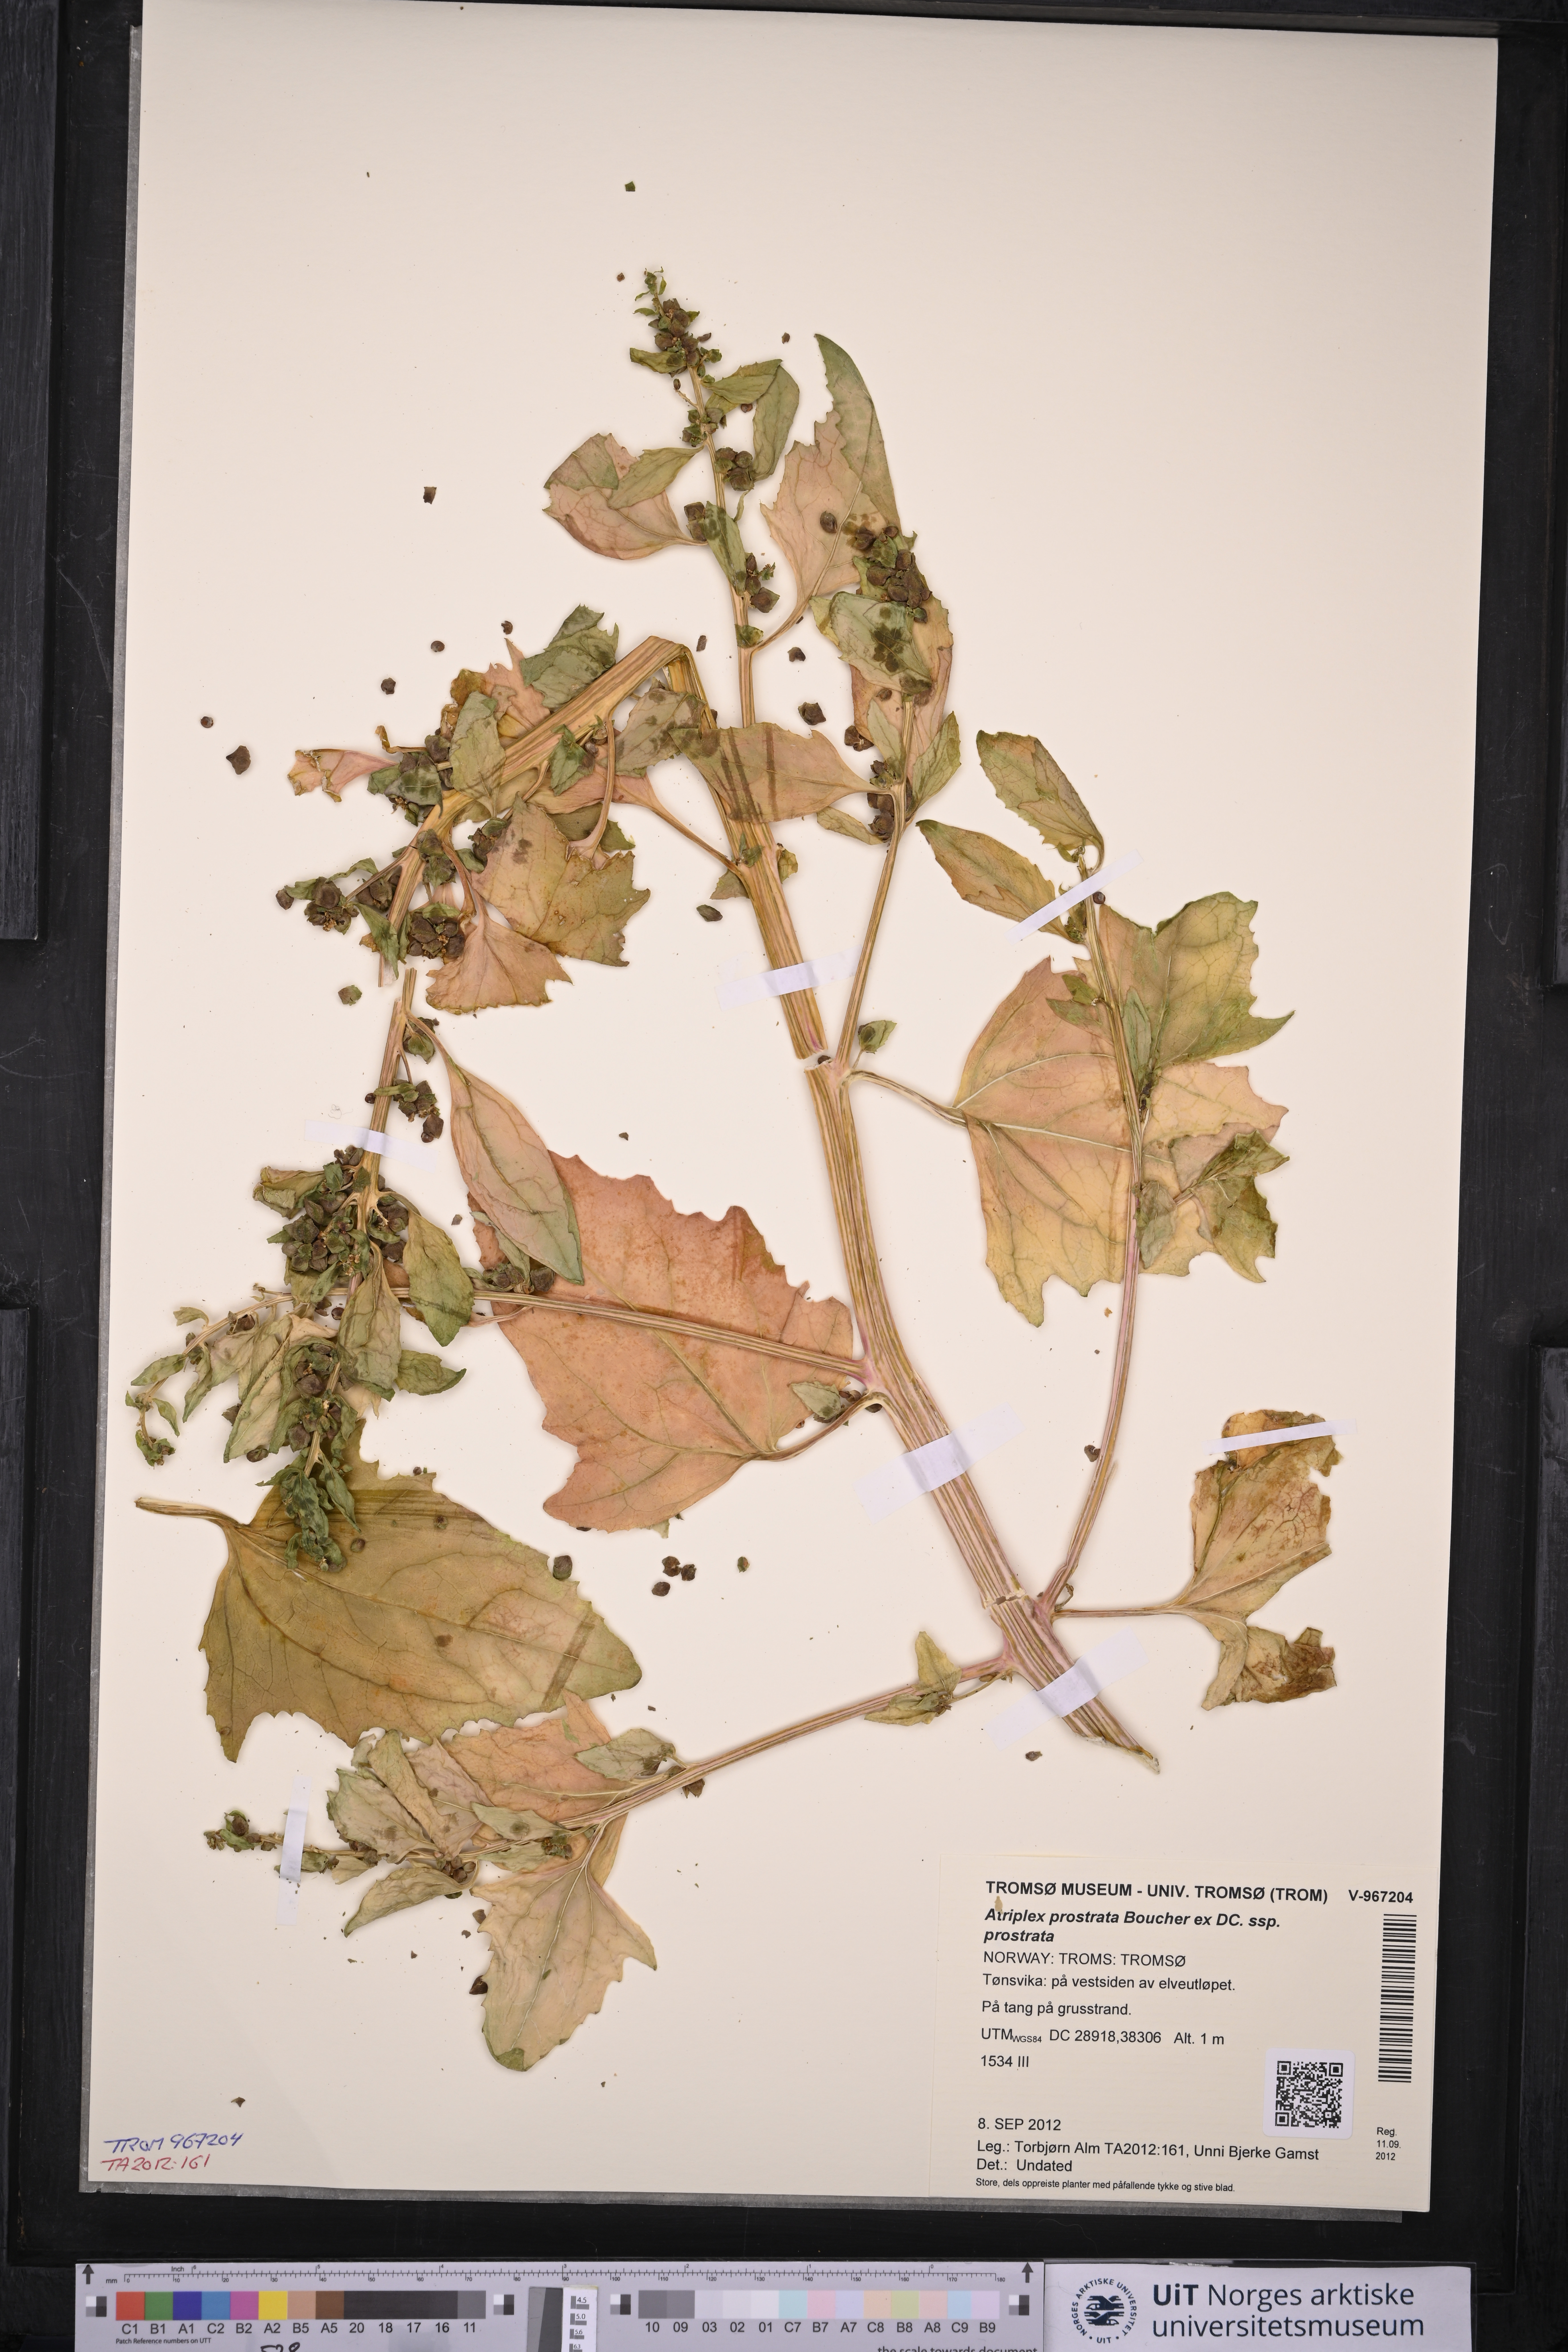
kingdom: Plantae
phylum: Tracheophyta
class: Magnoliopsida
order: Caryophyllales
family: Amaranthaceae
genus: Atriplex
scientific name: Atriplex prostrata
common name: Spear-leaved orache
